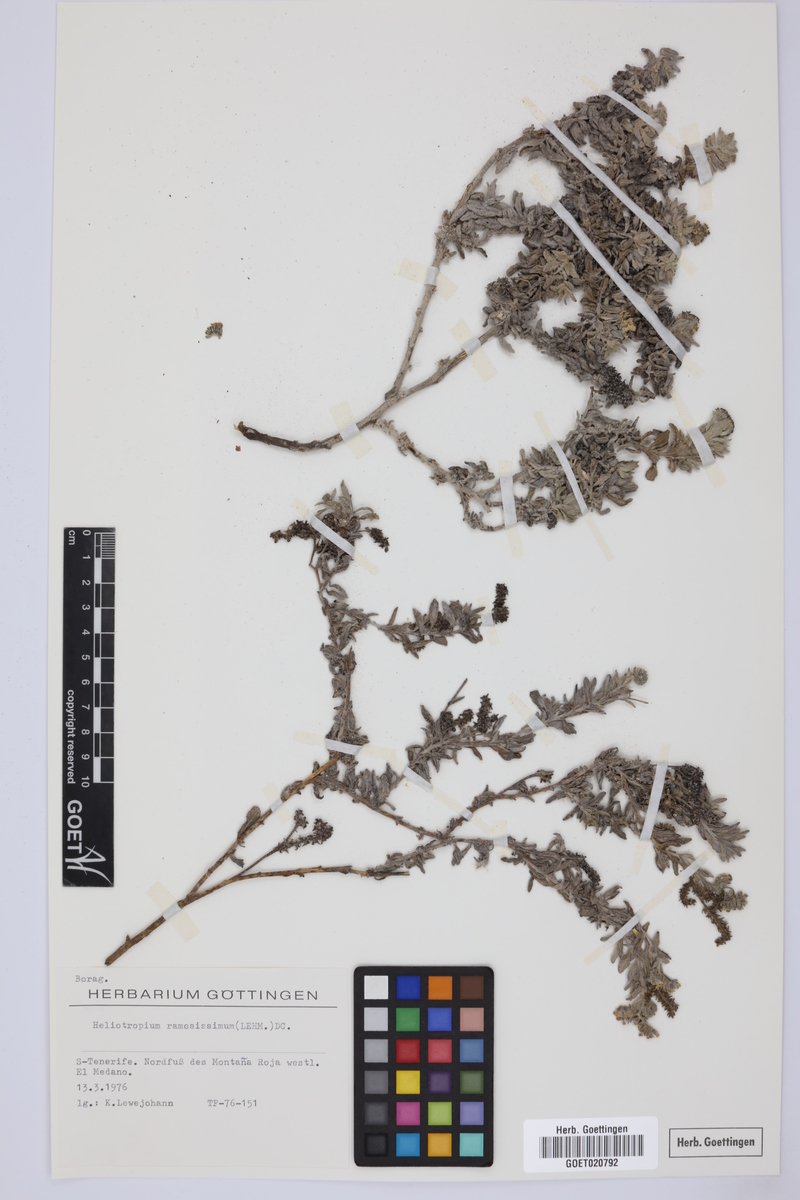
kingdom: Plantae
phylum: Tracheophyta
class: Magnoliopsida
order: Boraginales
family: Heliotropiaceae
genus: Heliotropium
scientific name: Heliotropium ramosissimum
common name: Wavy heliotrope
